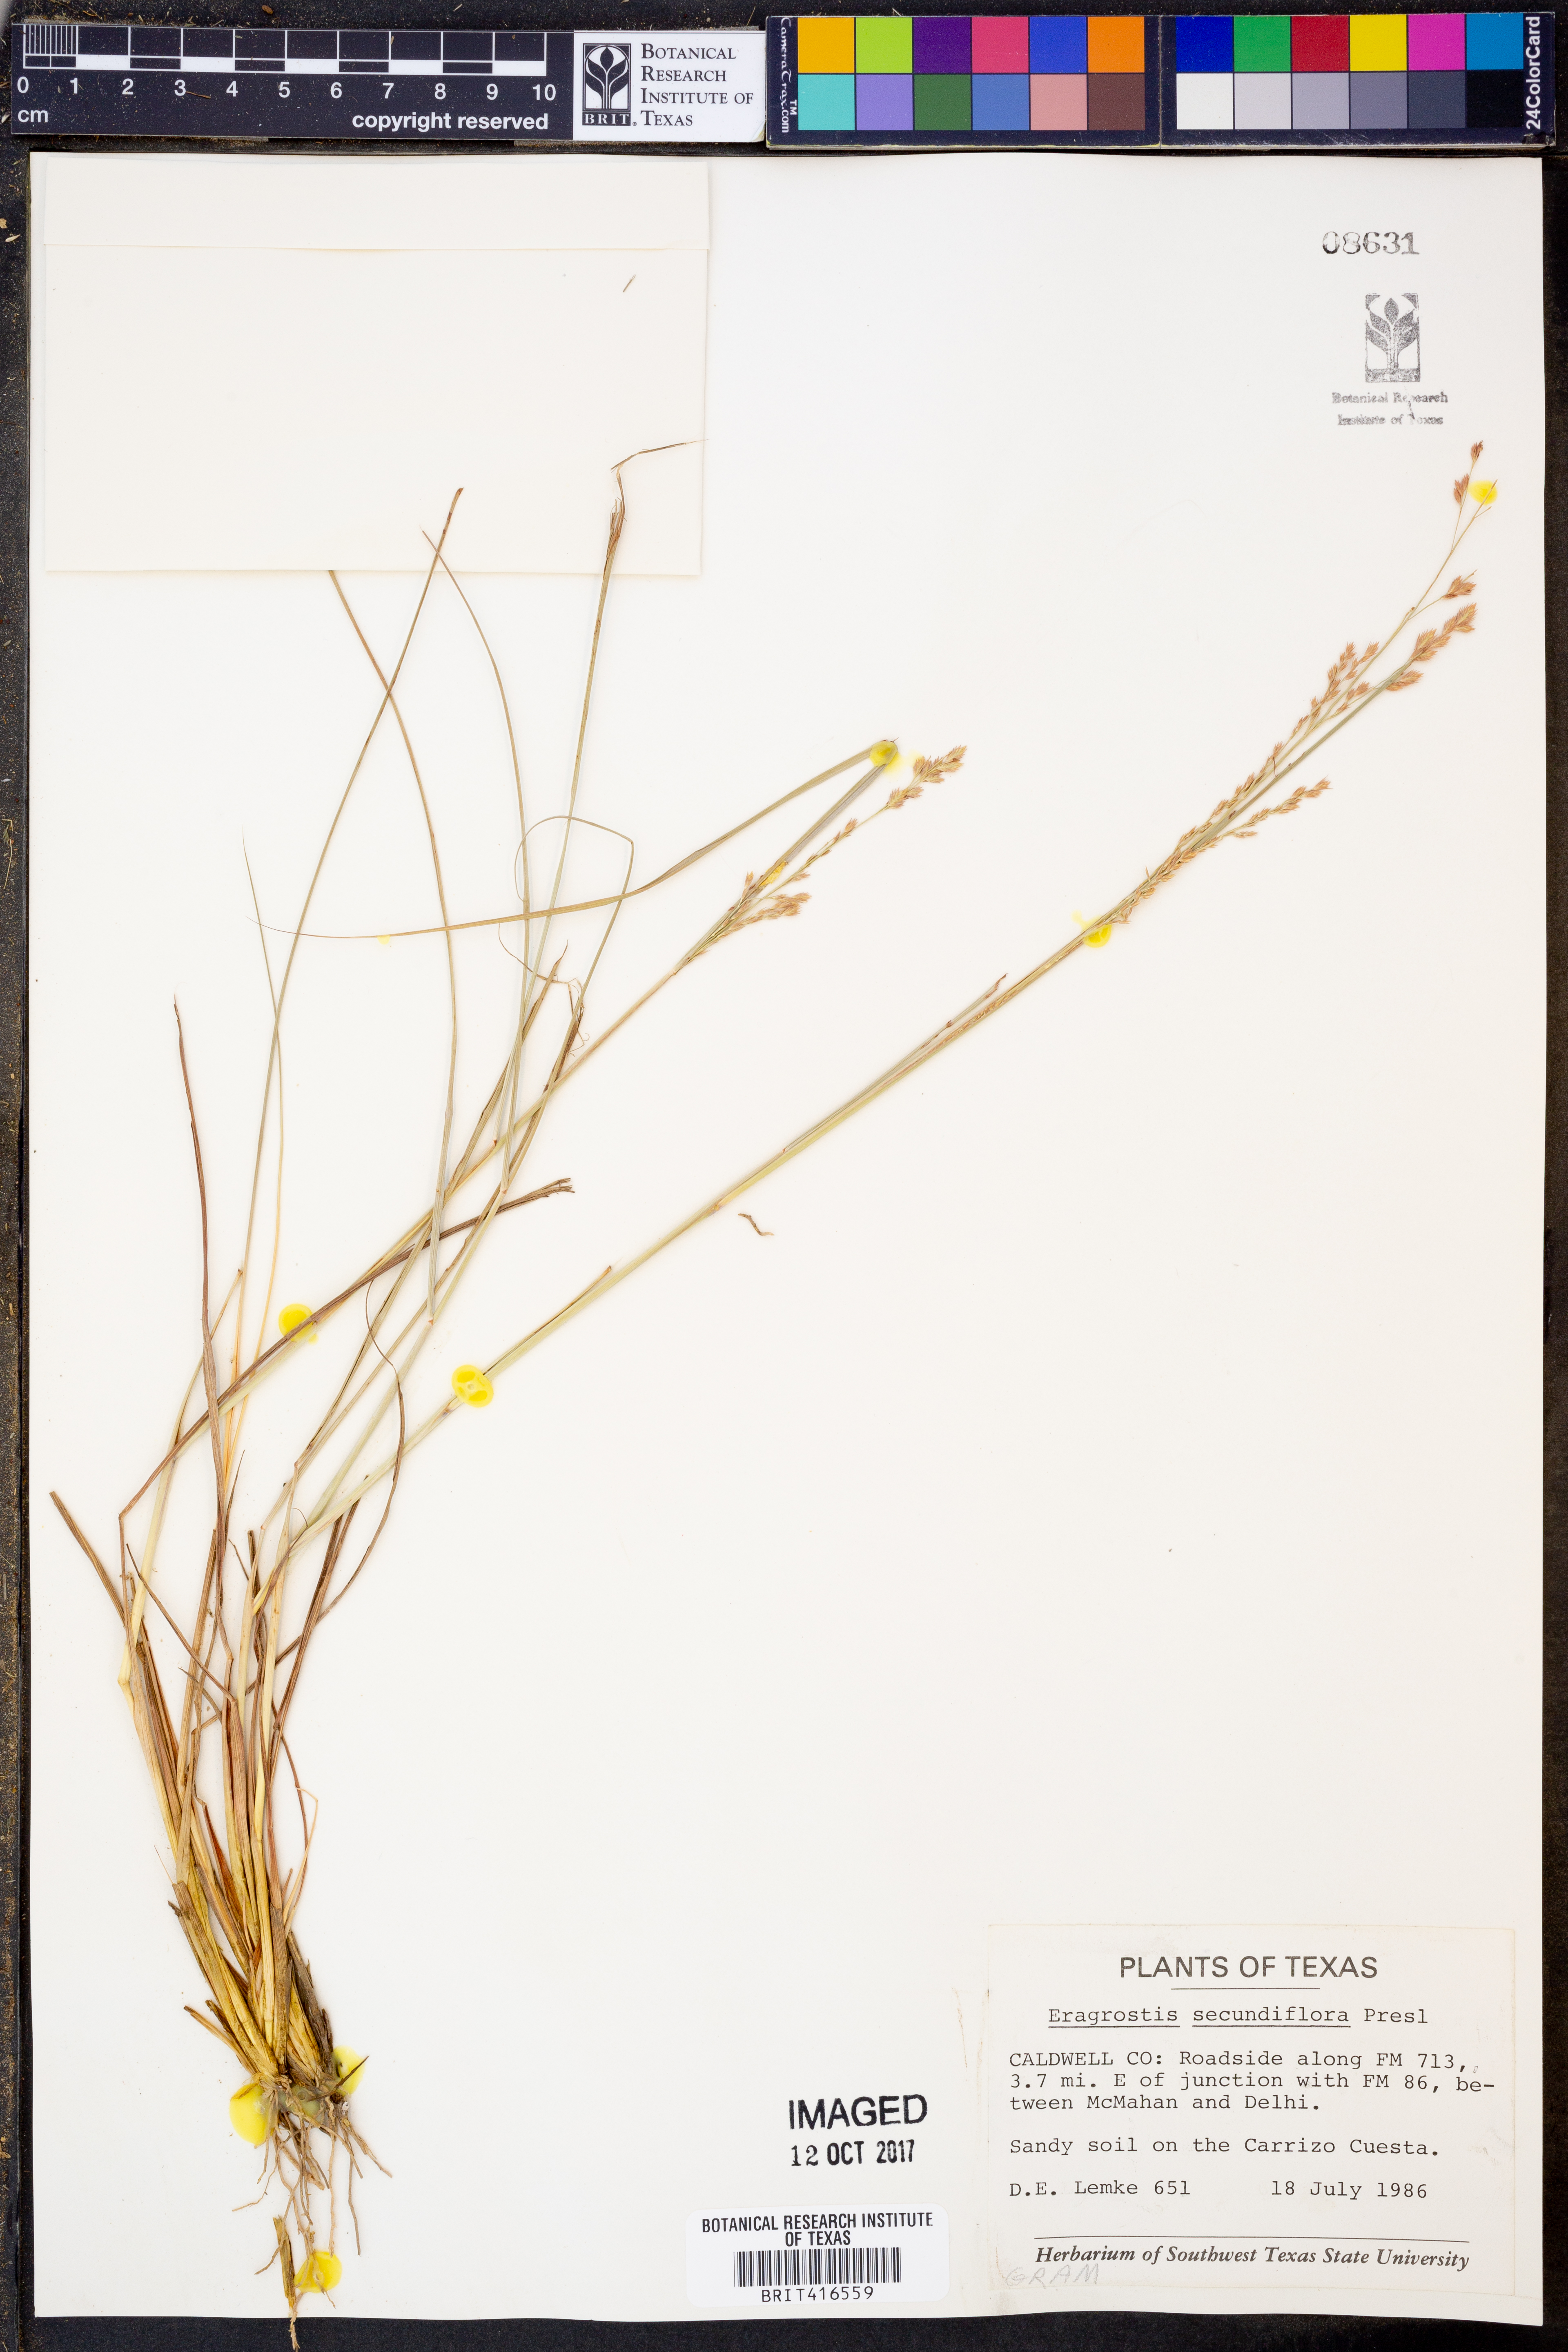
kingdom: Plantae
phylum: Tracheophyta
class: Liliopsida
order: Poales
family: Poaceae
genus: Eragrostis
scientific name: Eragrostis secundiflora
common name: Red love grass
